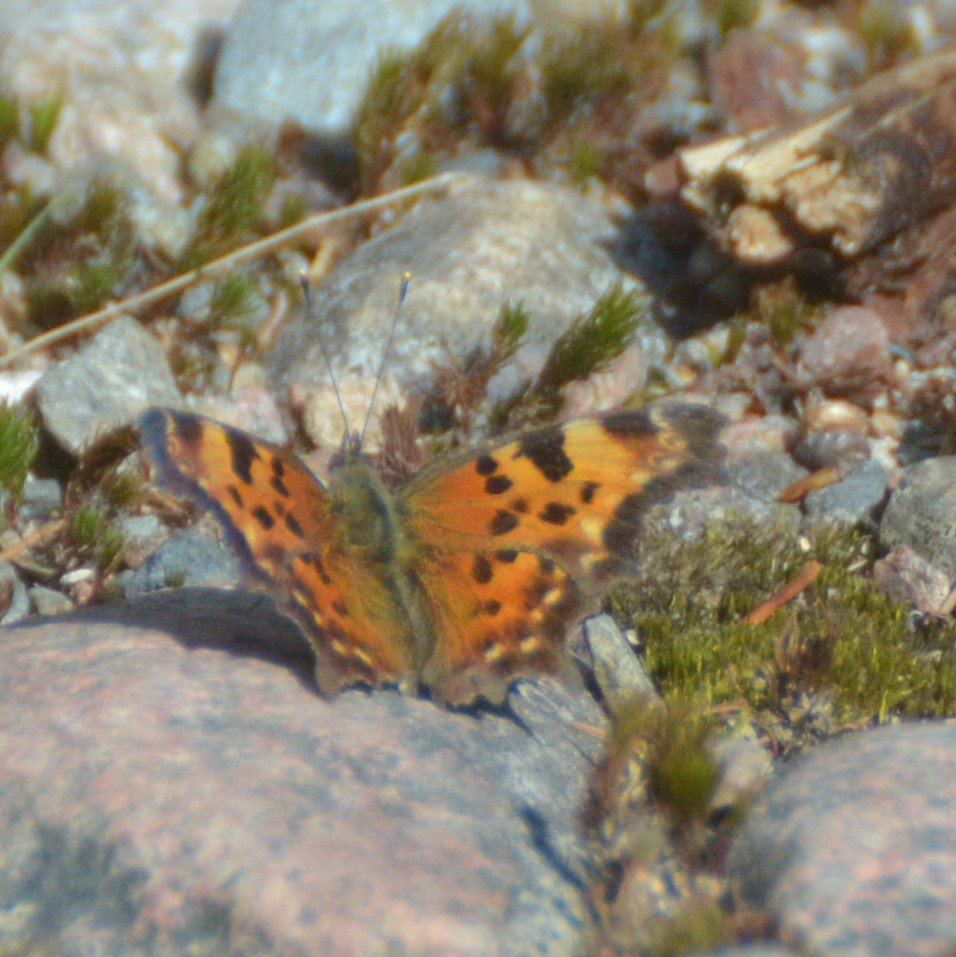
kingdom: Animalia
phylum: Arthropoda
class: Insecta
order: Lepidoptera
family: Nymphalidae
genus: Polygonia
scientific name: Polygonia faunus
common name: Green Comma
